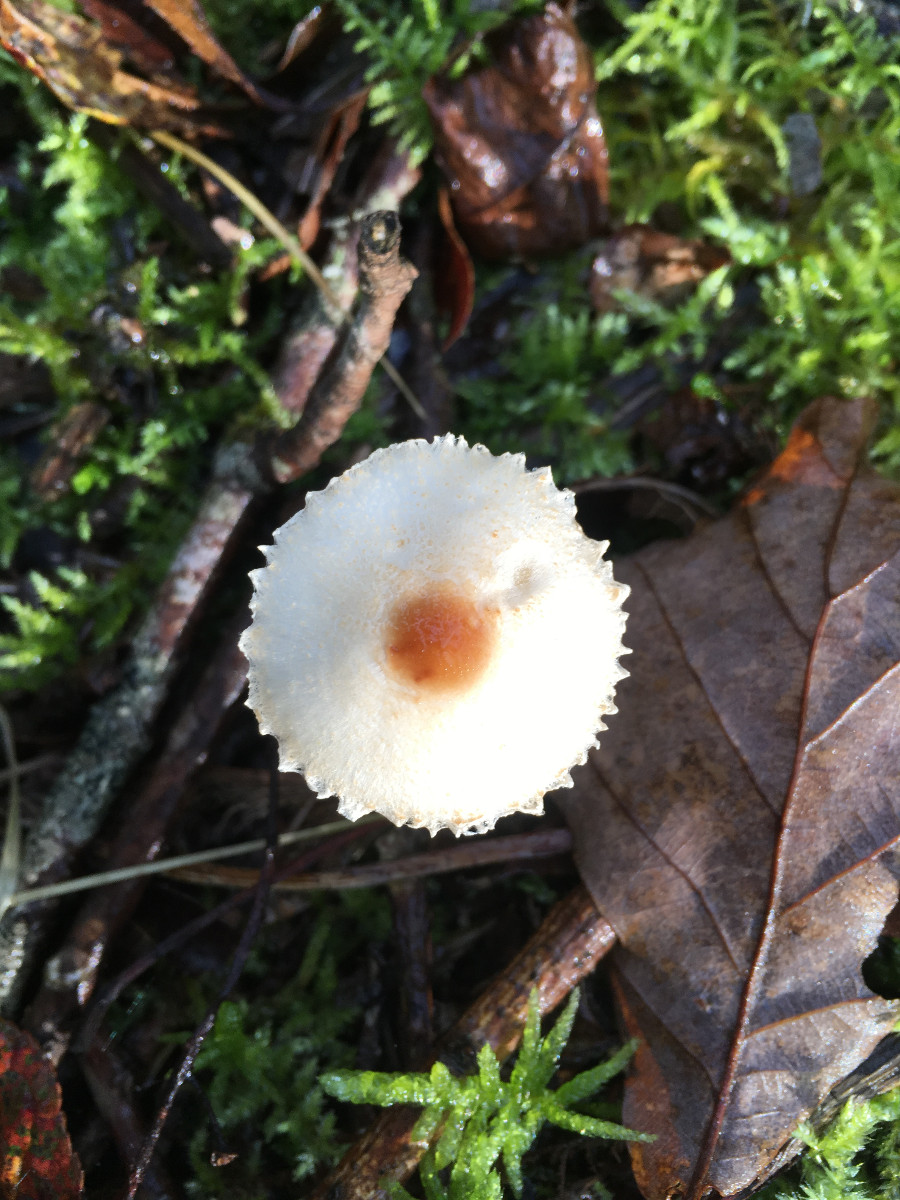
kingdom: Fungi
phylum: Basidiomycota
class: Agaricomycetes
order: Agaricales
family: Agaricaceae
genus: Lepiota
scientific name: Lepiota cristata
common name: stinkende parasolhat
